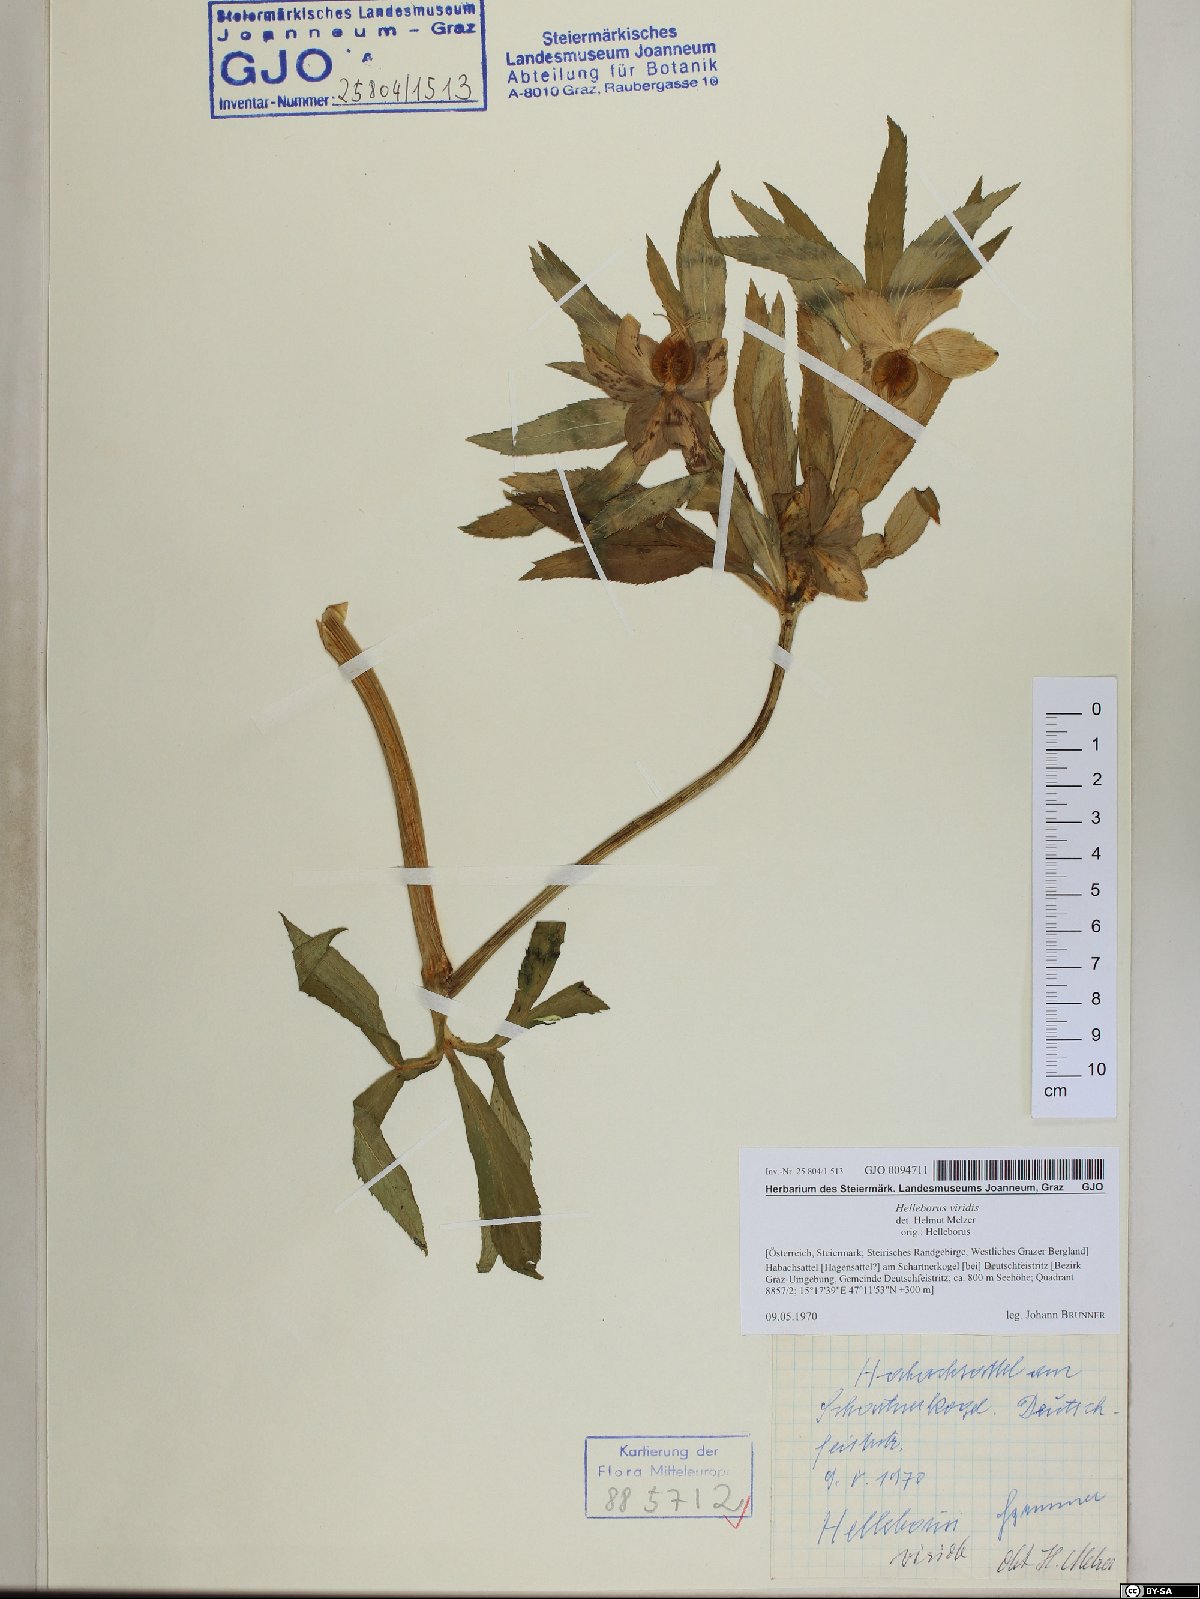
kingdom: Plantae
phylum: Tracheophyta
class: Magnoliopsida
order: Ranunculales
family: Ranunculaceae
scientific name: Ranunculaceae
